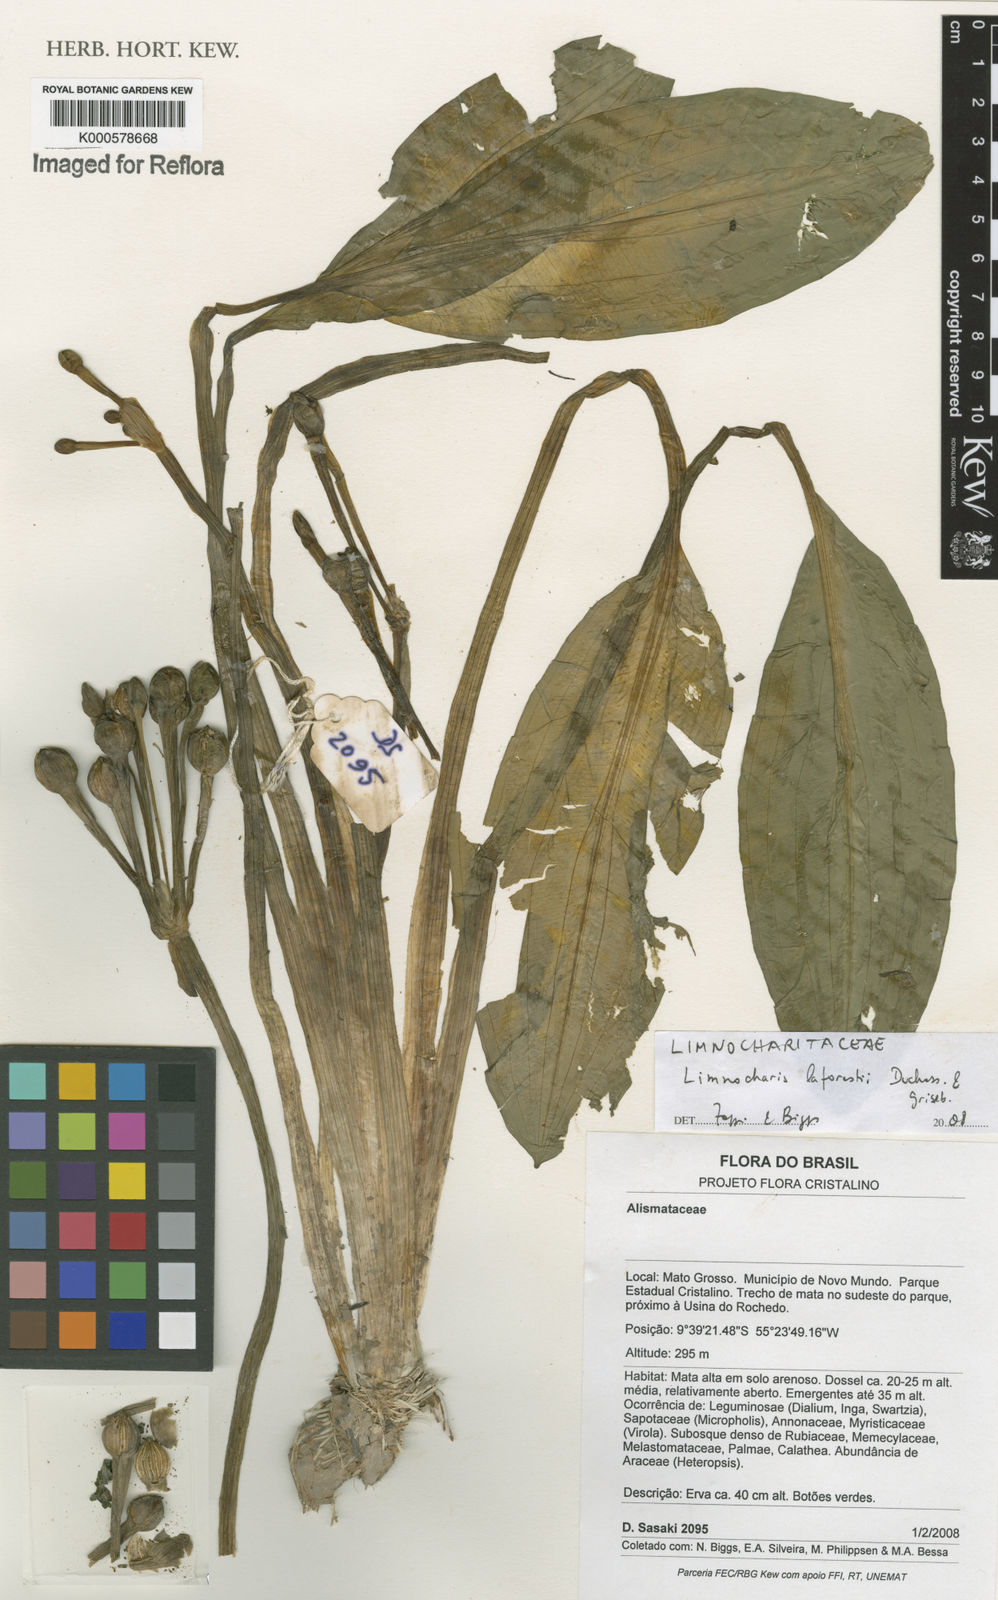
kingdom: Plantae
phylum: Tracheophyta
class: Liliopsida
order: Alismatales
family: Alismataceae
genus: Limnocharis
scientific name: Limnocharis laforestii
